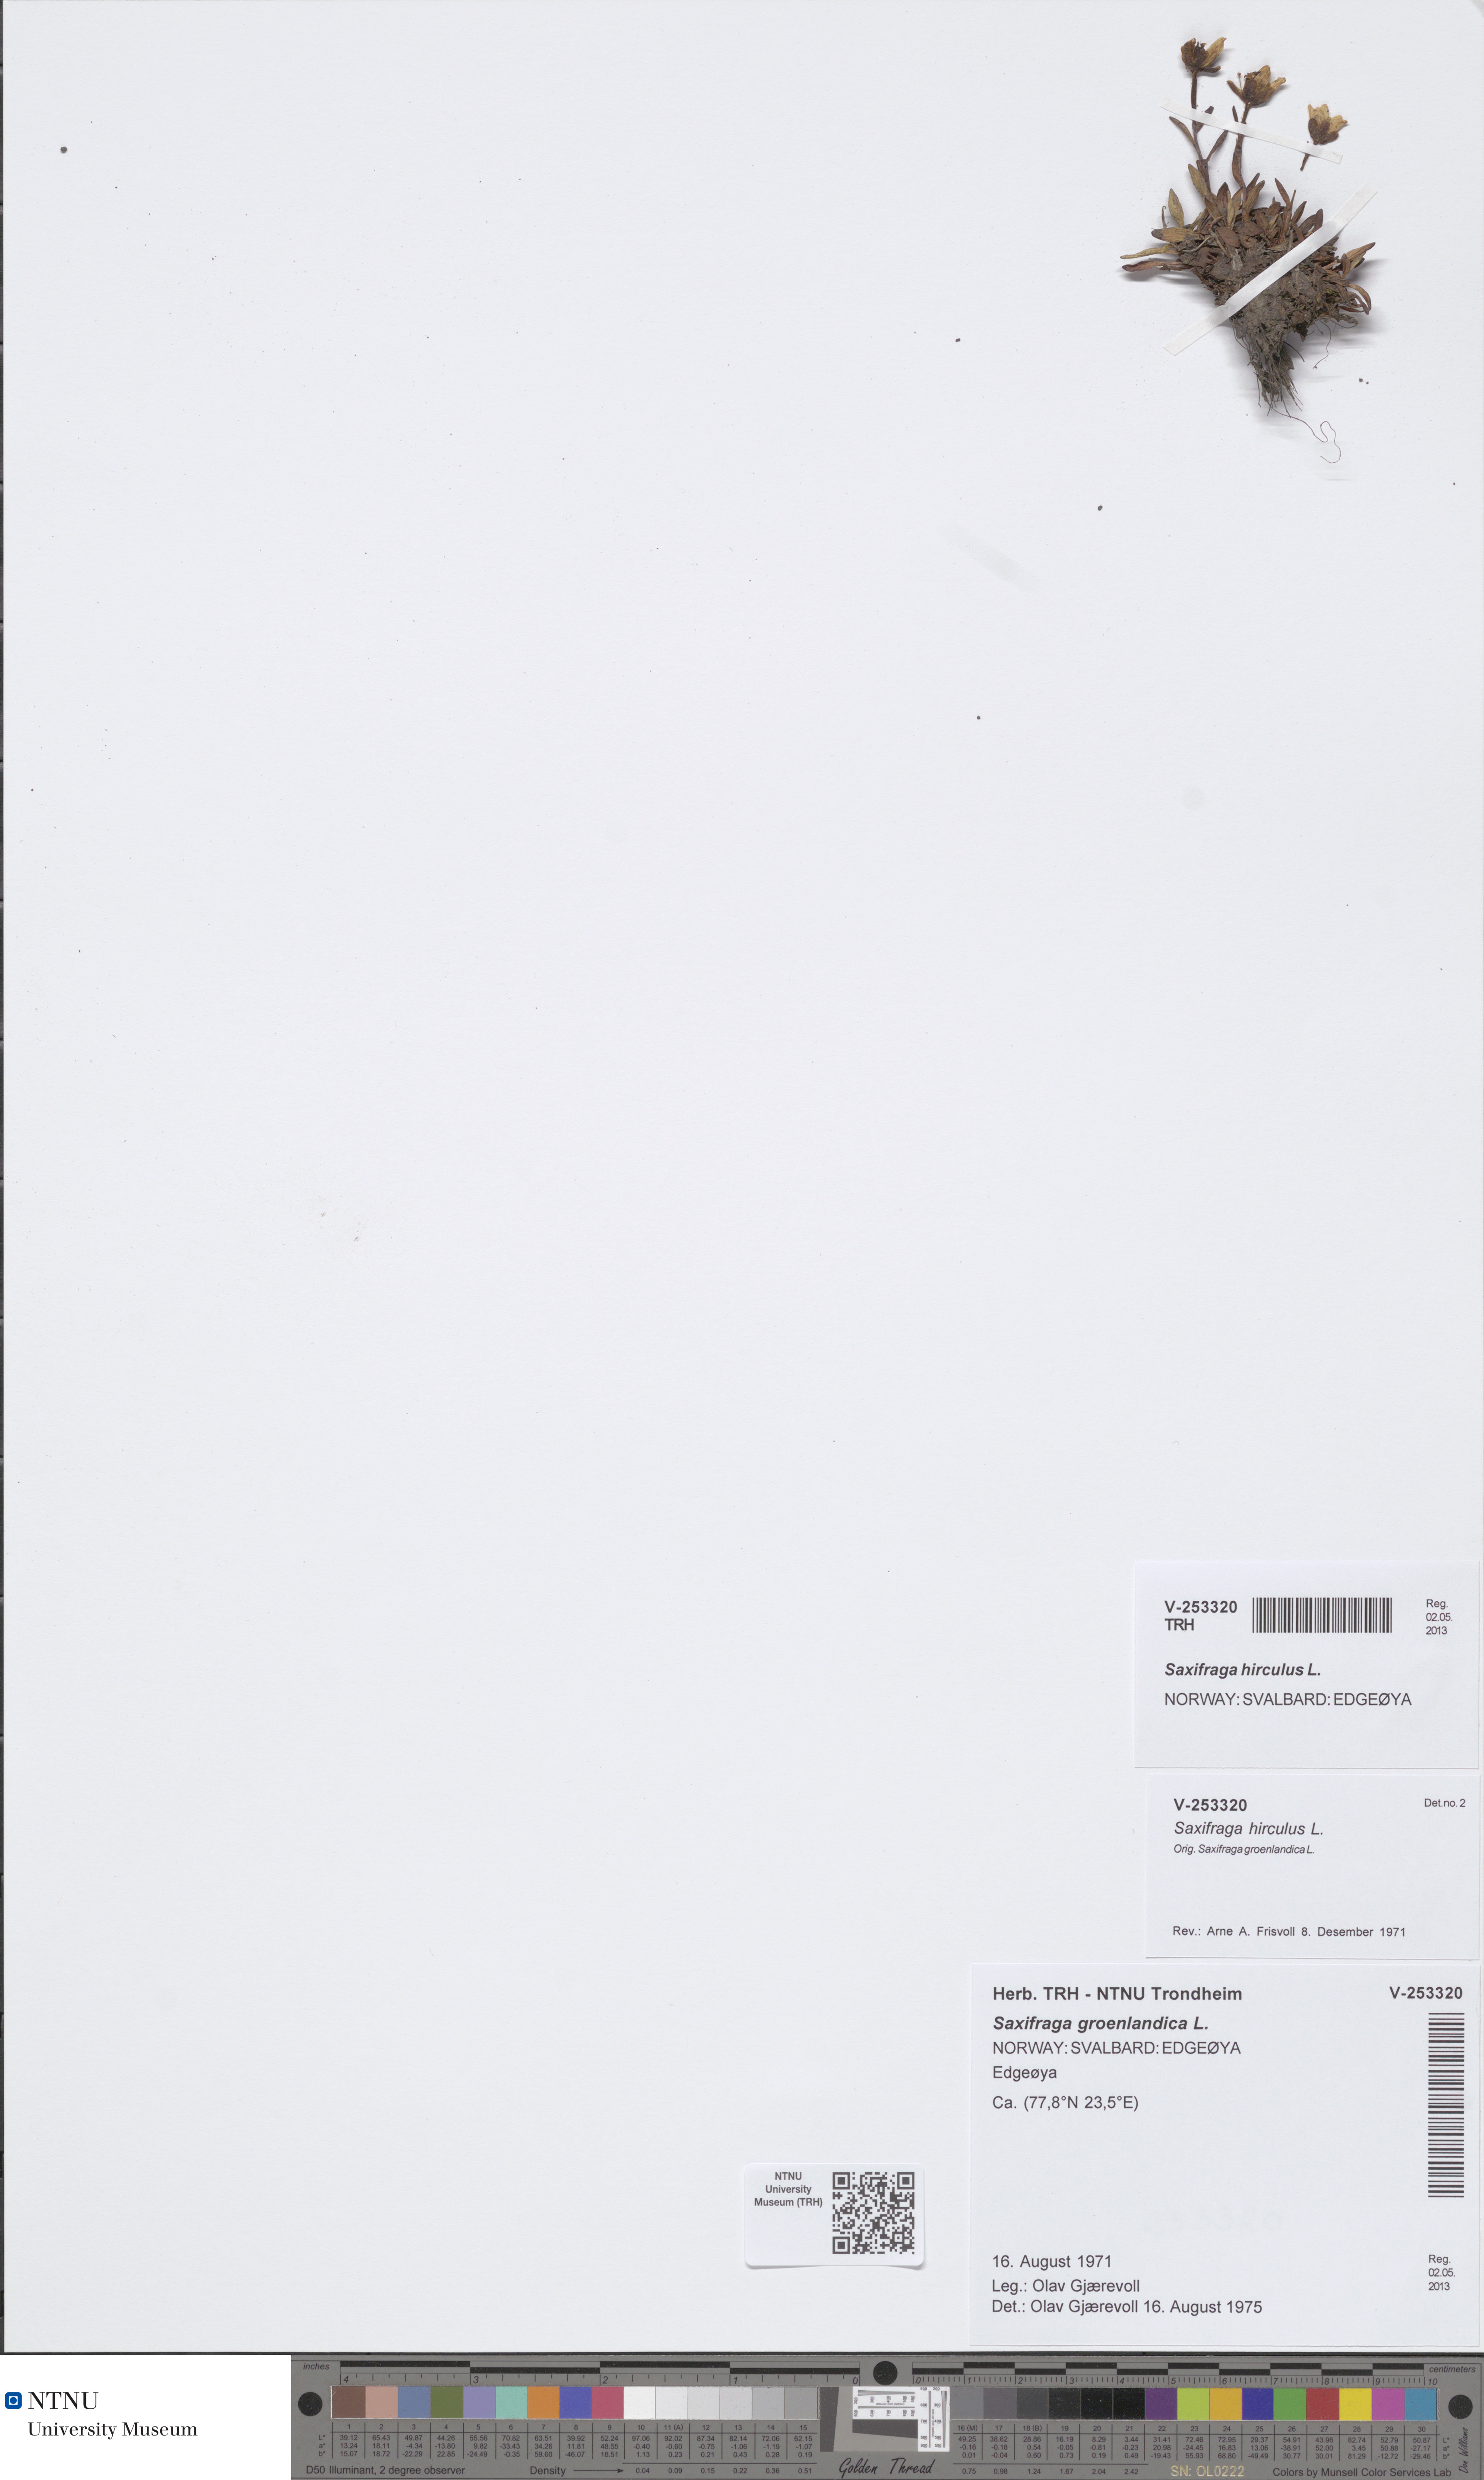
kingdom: Plantae
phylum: Tracheophyta
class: Magnoliopsida
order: Saxifragales
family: Saxifragaceae
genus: Saxifraga
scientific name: Saxifraga hirculus
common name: Yellow marsh saxifrage
